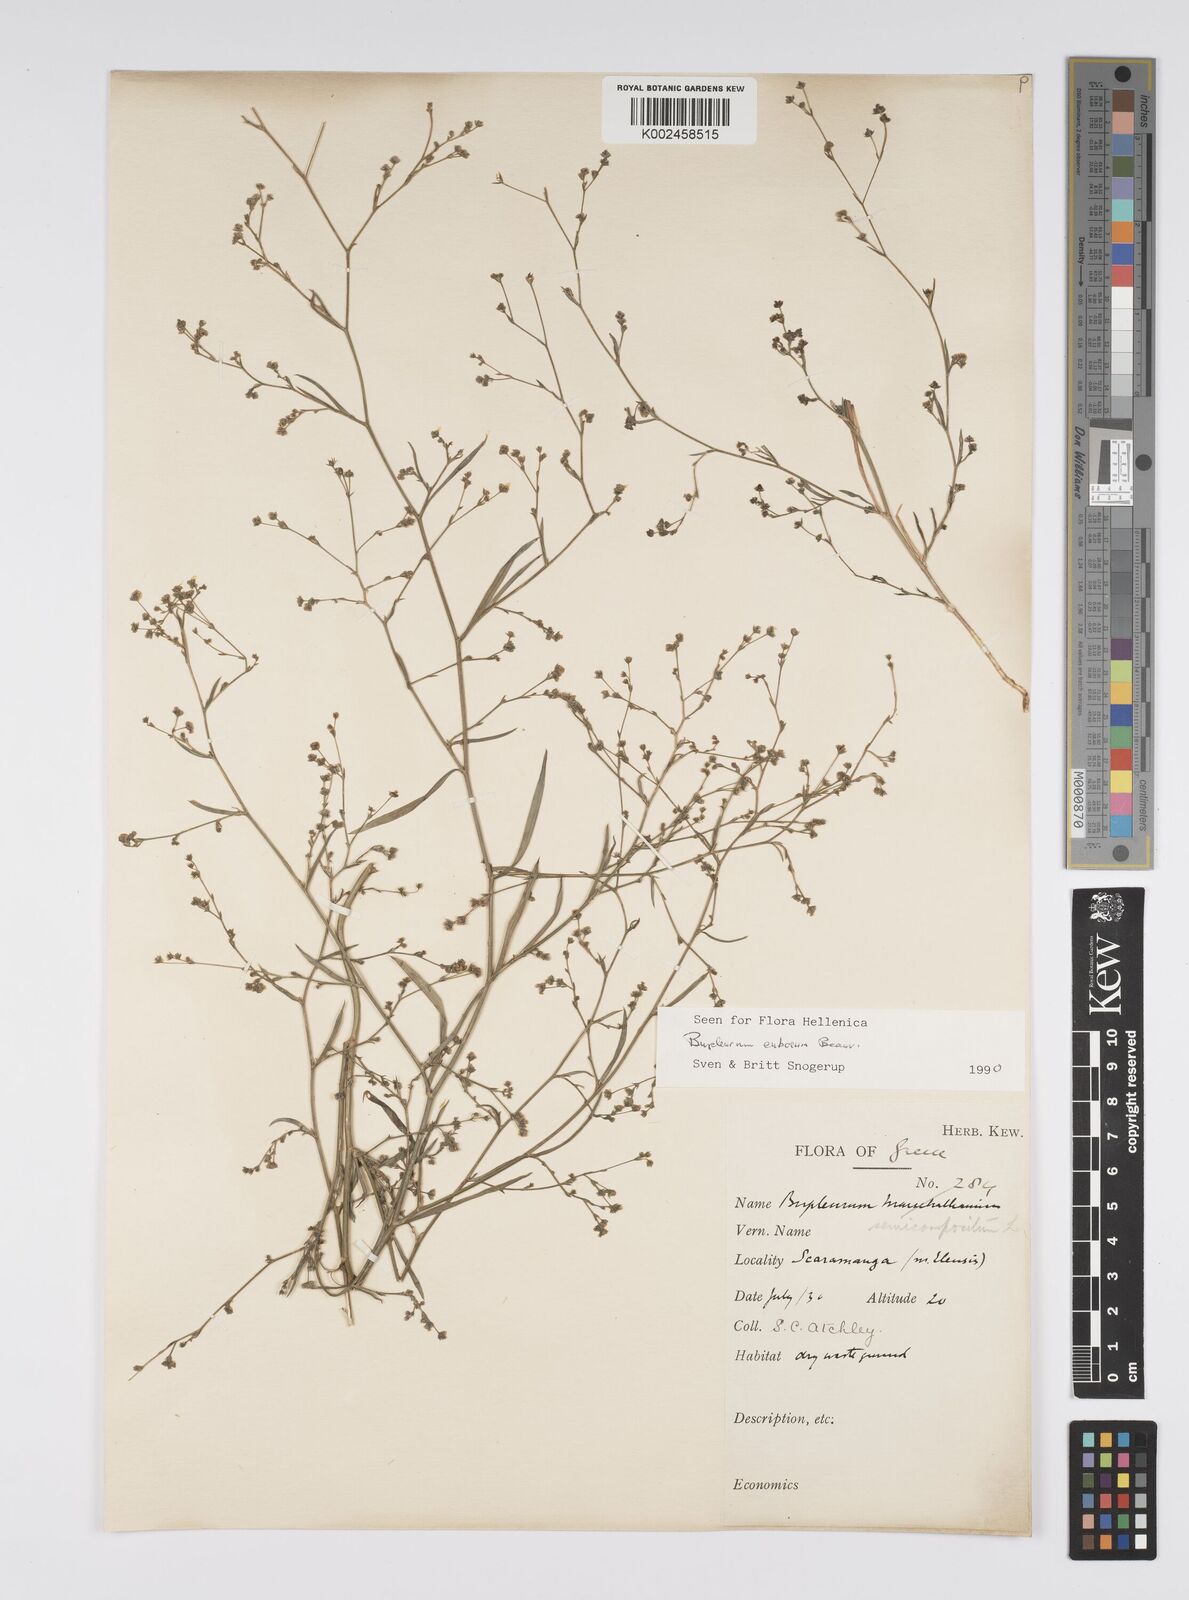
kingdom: Plantae
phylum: Tracheophyta
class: Magnoliopsida
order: Apiales
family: Apiaceae
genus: Bupleurum
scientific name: Bupleurum tenuissimum
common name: Slender hare's-ear
